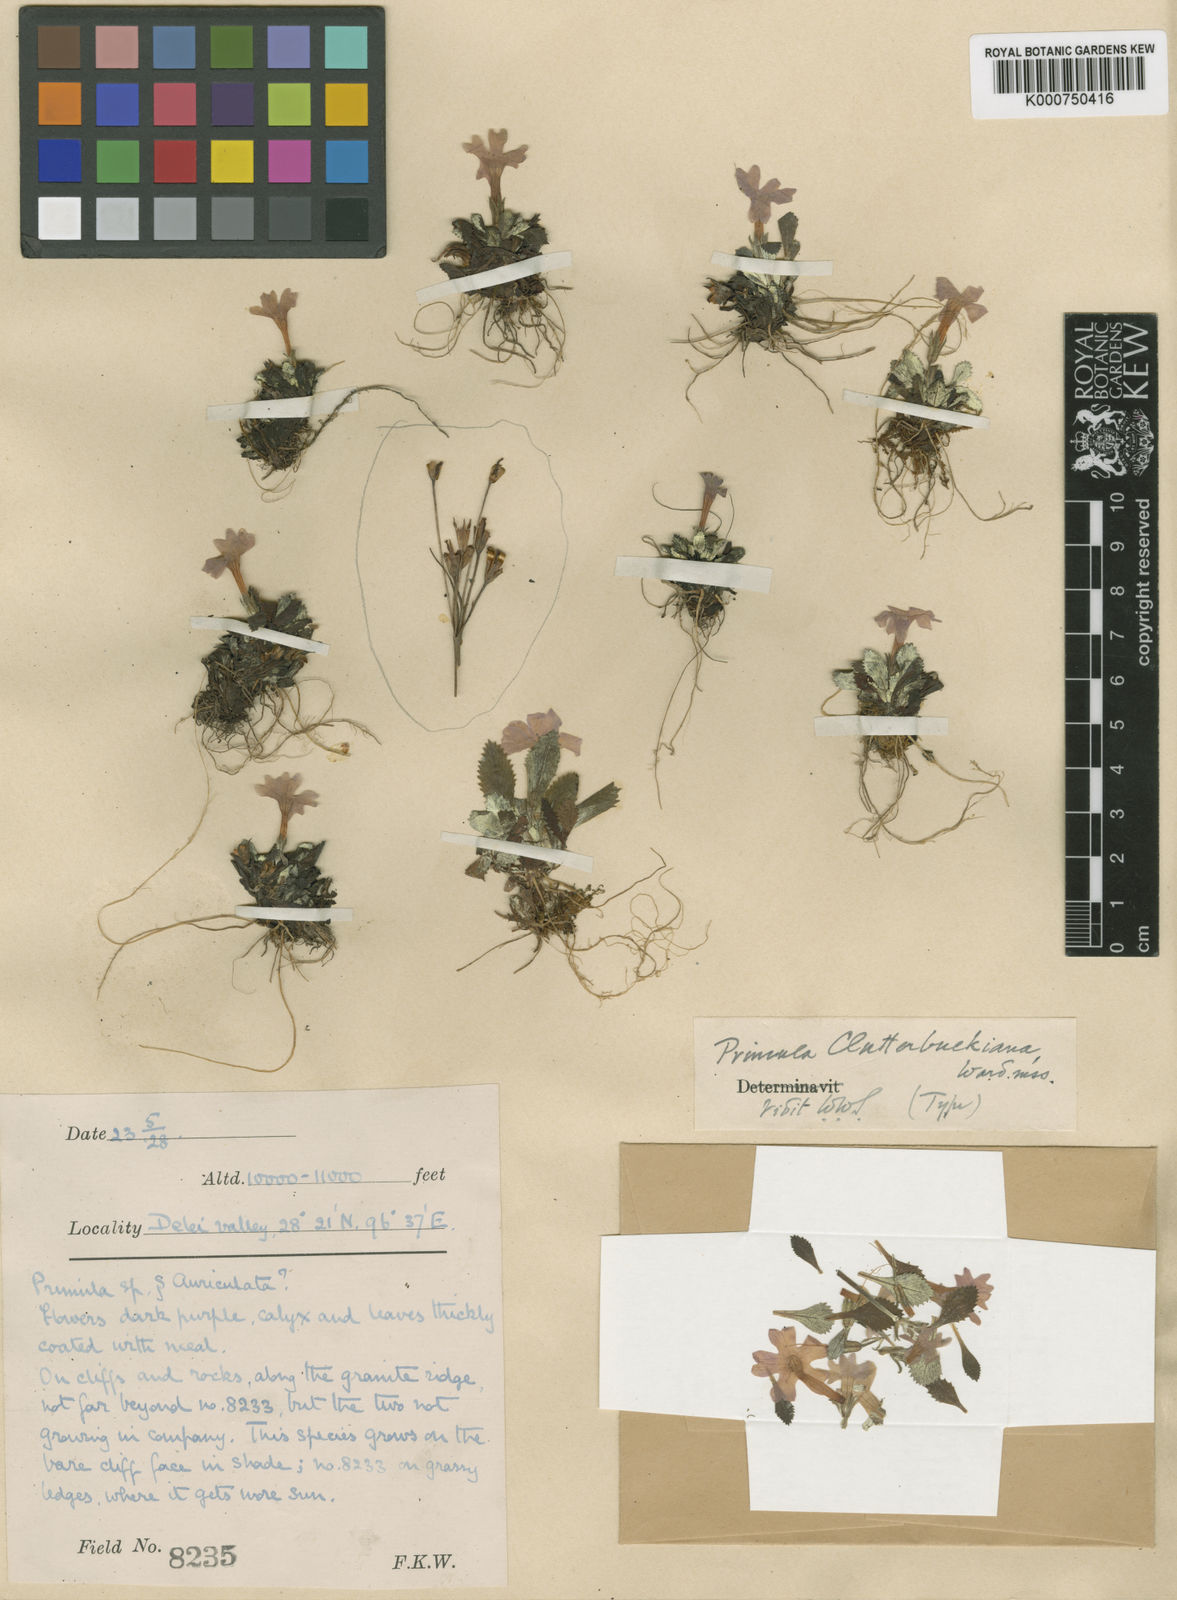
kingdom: Plantae
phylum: Tracheophyta
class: Magnoliopsida
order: Ericales
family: Primulaceae
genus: Primula
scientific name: Primula clutterbuckii
